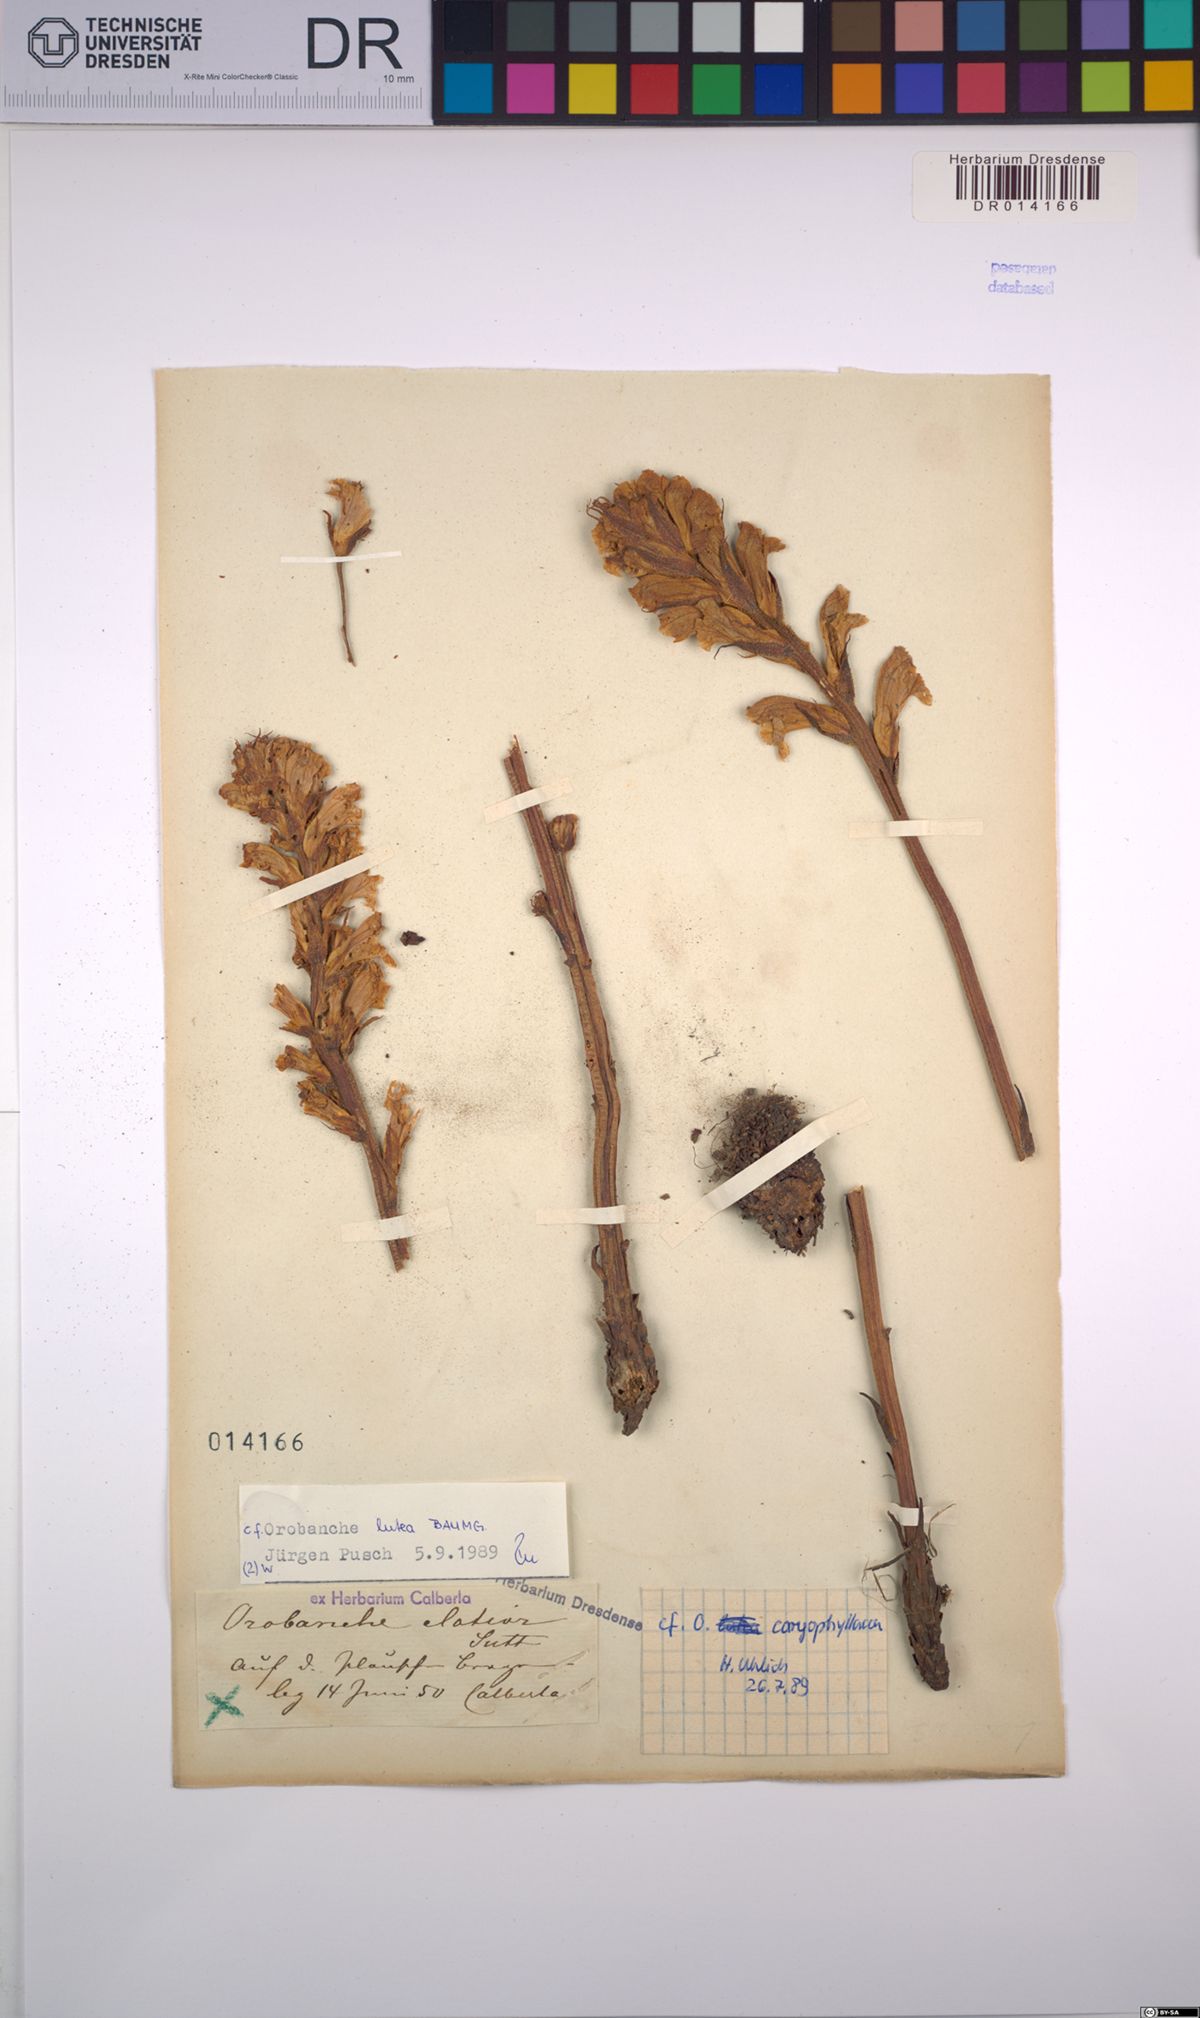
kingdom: Plantae
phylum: Tracheophyta
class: Magnoliopsida
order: Lamiales
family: Orobanchaceae
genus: Orobanche
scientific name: Orobanche lutea
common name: Yellow broomrape
